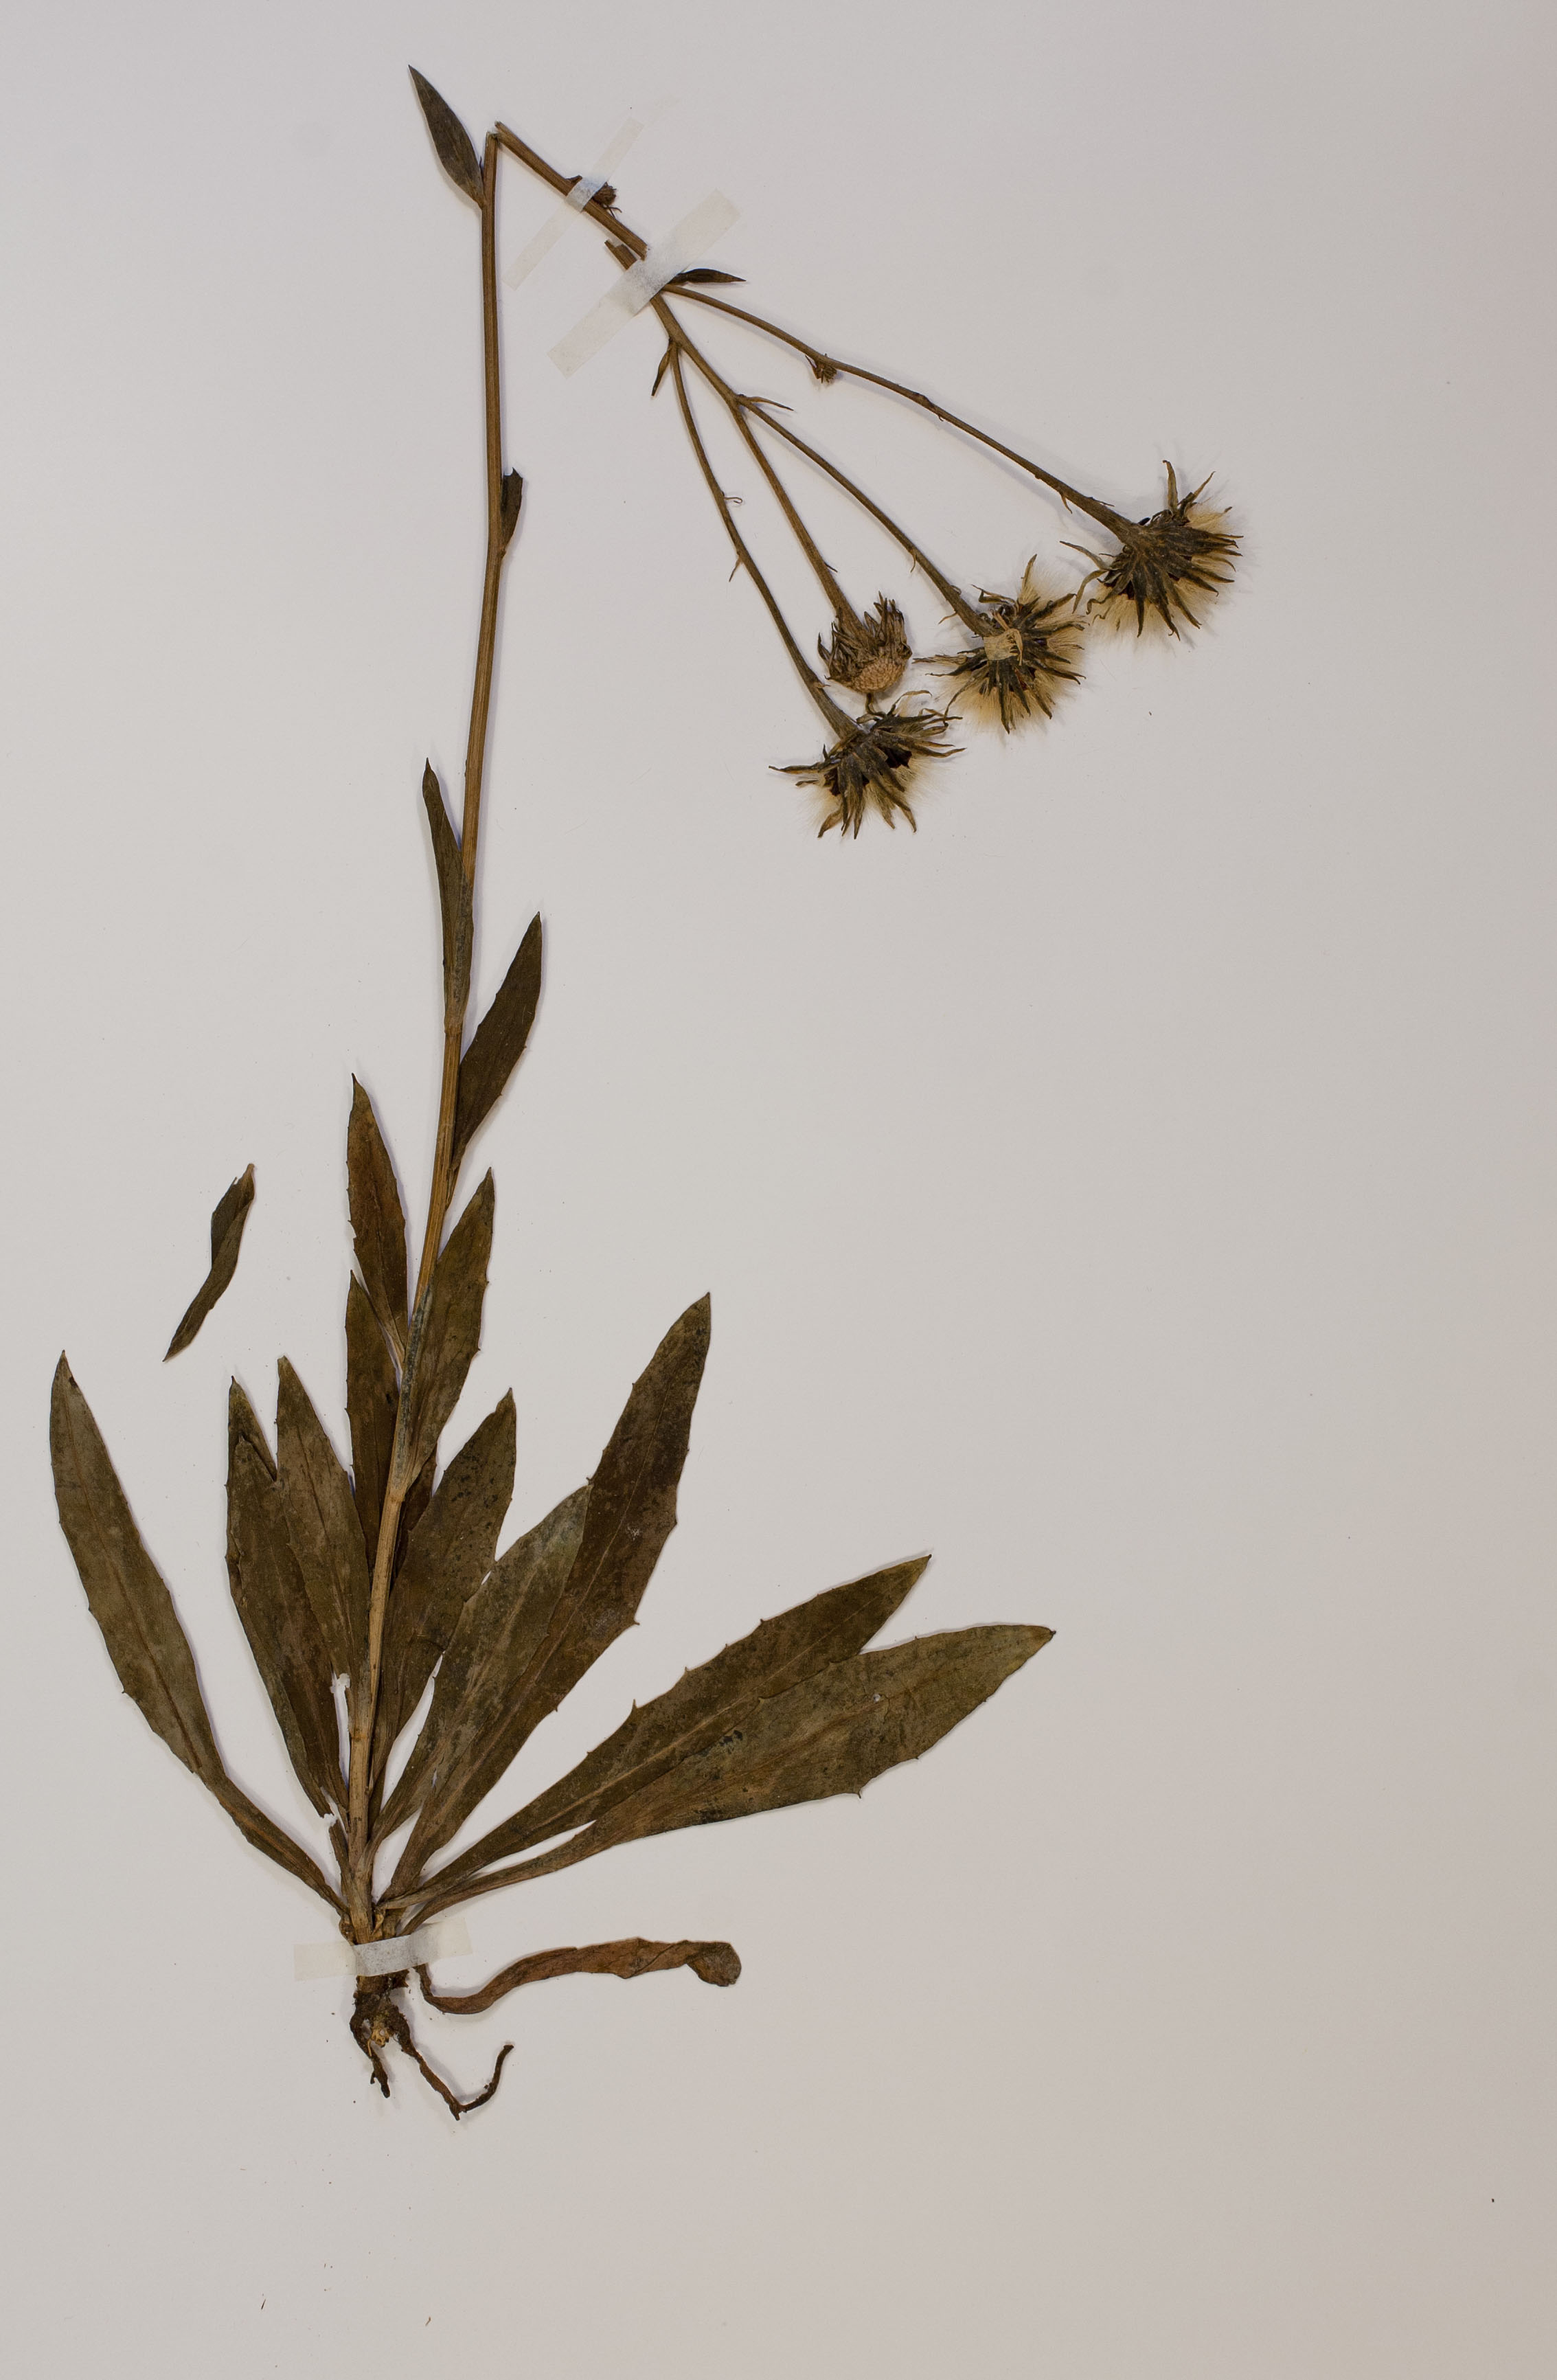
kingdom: Plantae
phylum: Tracheophyta
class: Magnoliopsida
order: Asterales
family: Asteraceae
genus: Hieracium
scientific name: Hieracium bupleuroides
